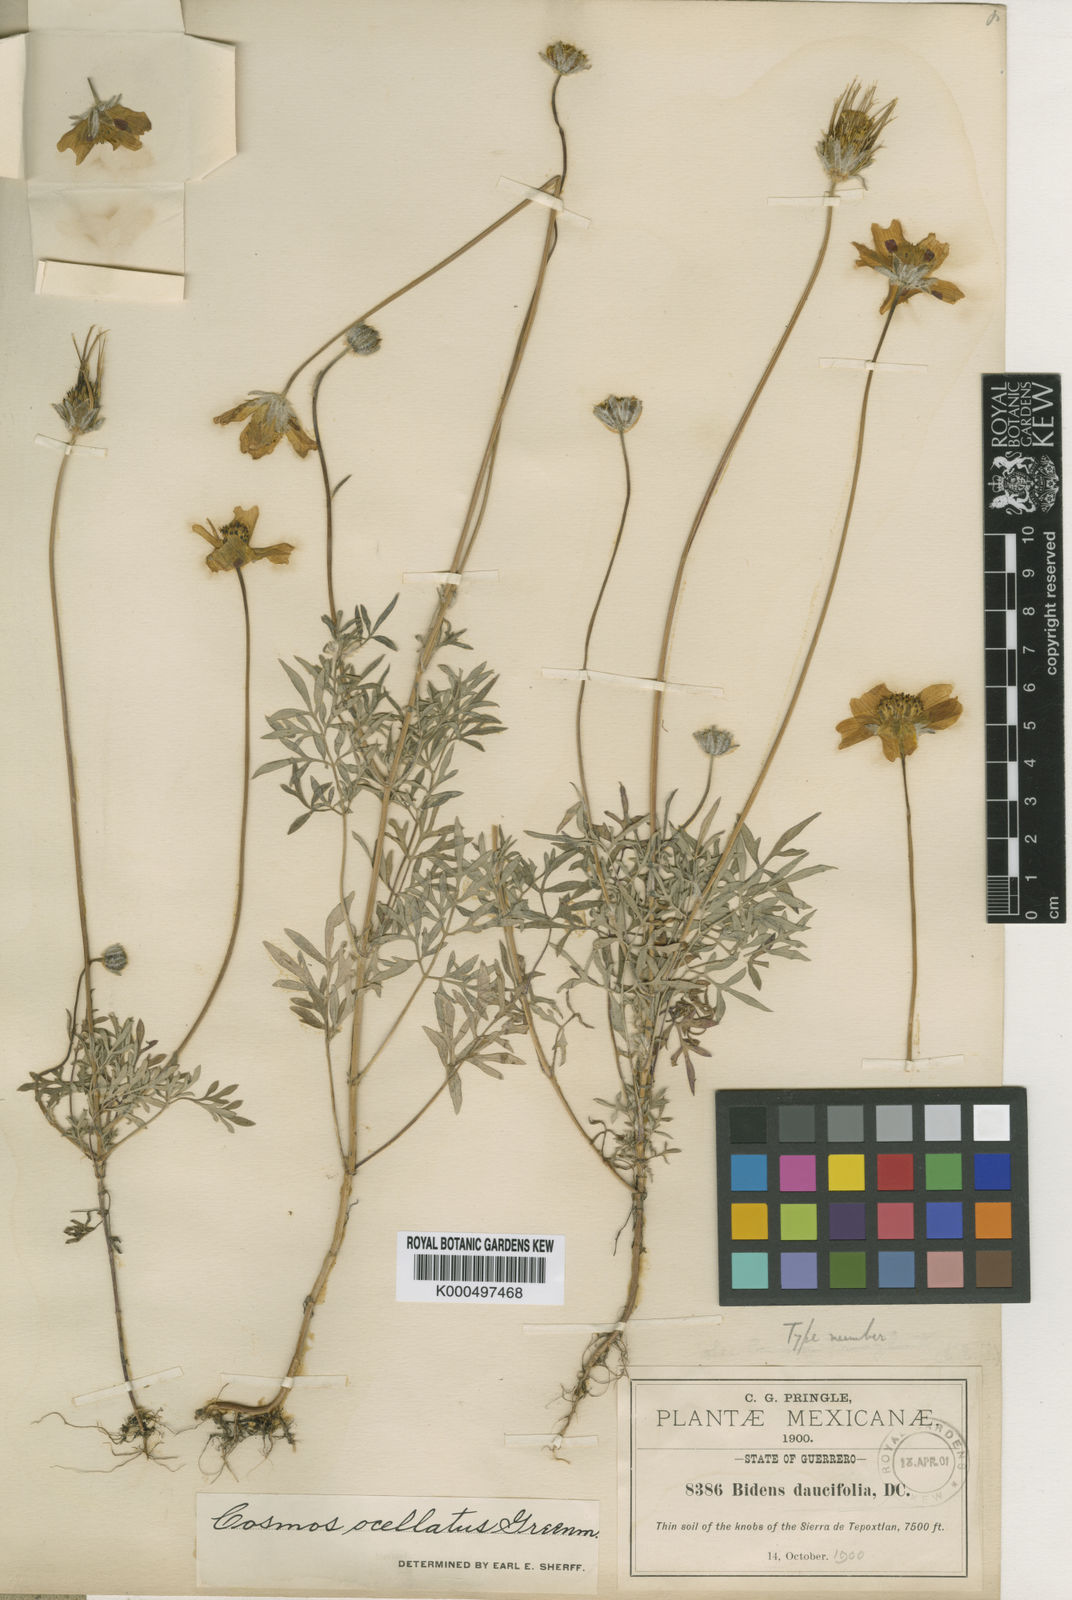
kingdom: Plantae
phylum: Tracheophyta
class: Magnoliopsida
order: Asterales
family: Asteraceae
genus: Bidens
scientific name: Bidens ocellatus
